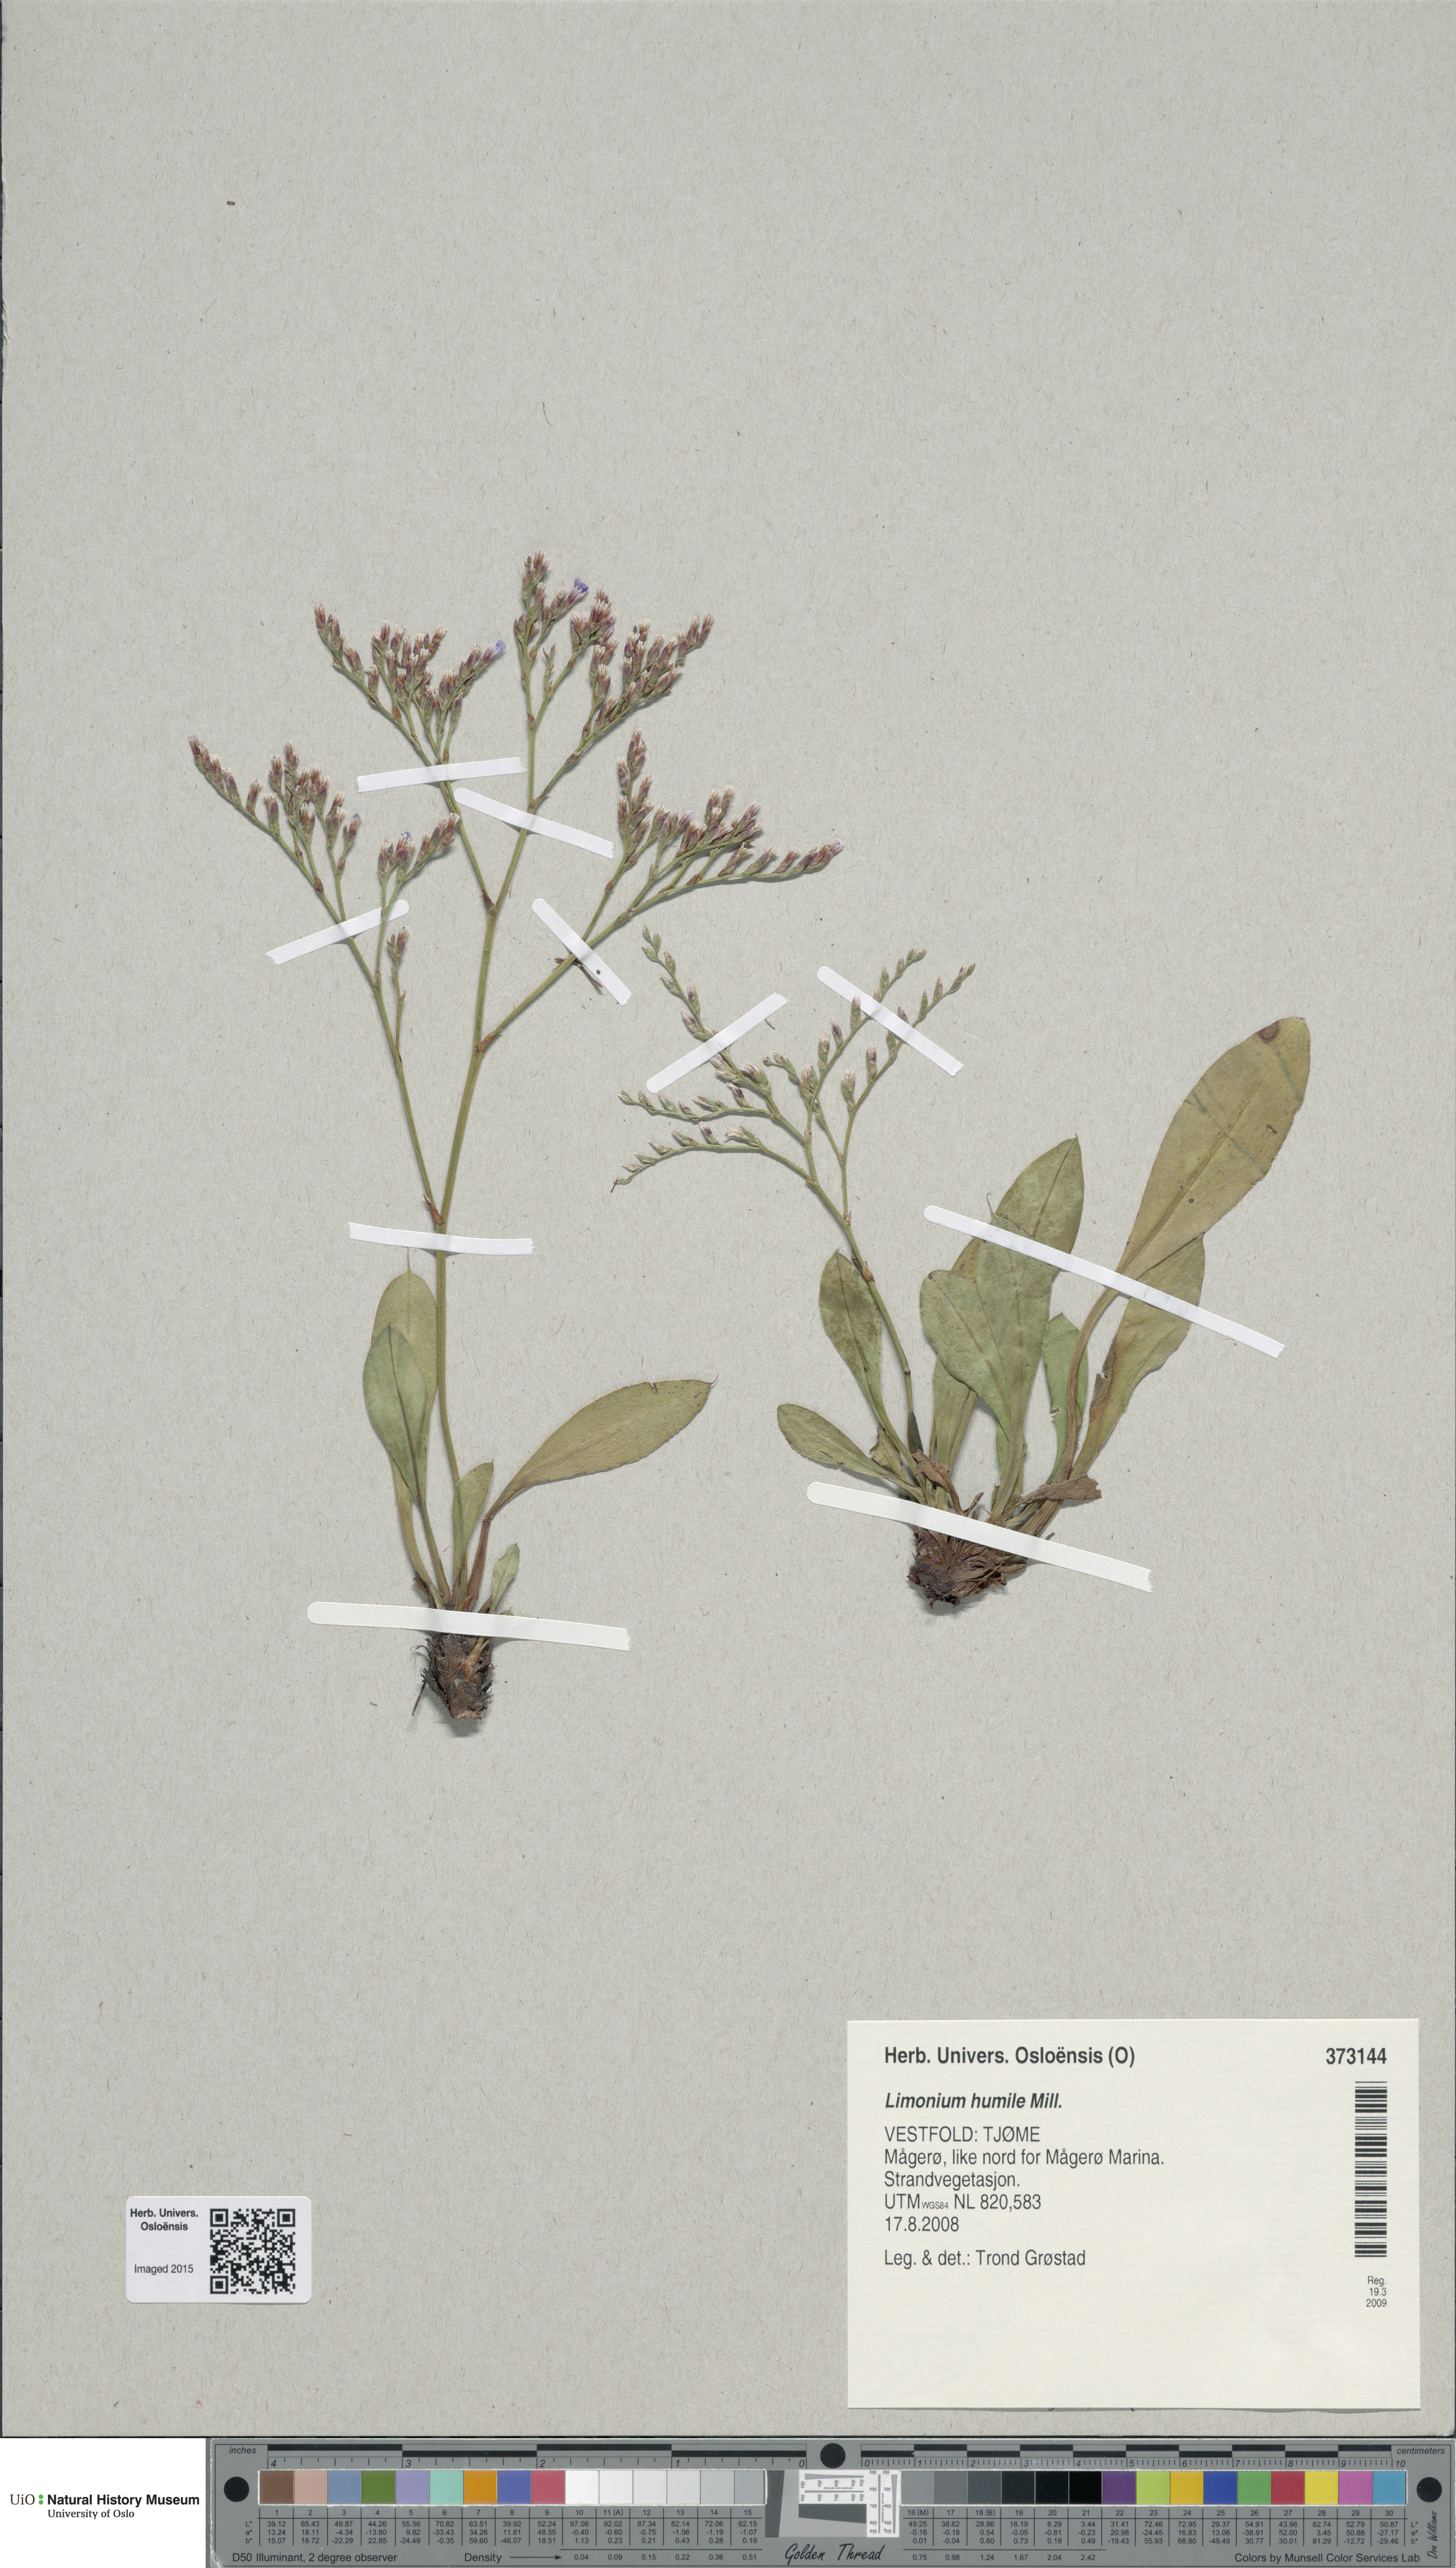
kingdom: Plantae
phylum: Tracheophyta
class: Magnoliopsida
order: Caryophyllales
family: Plumbaginaceae
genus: Limonium
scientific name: Limonium humile
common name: Lax-flowered sea-lavender
